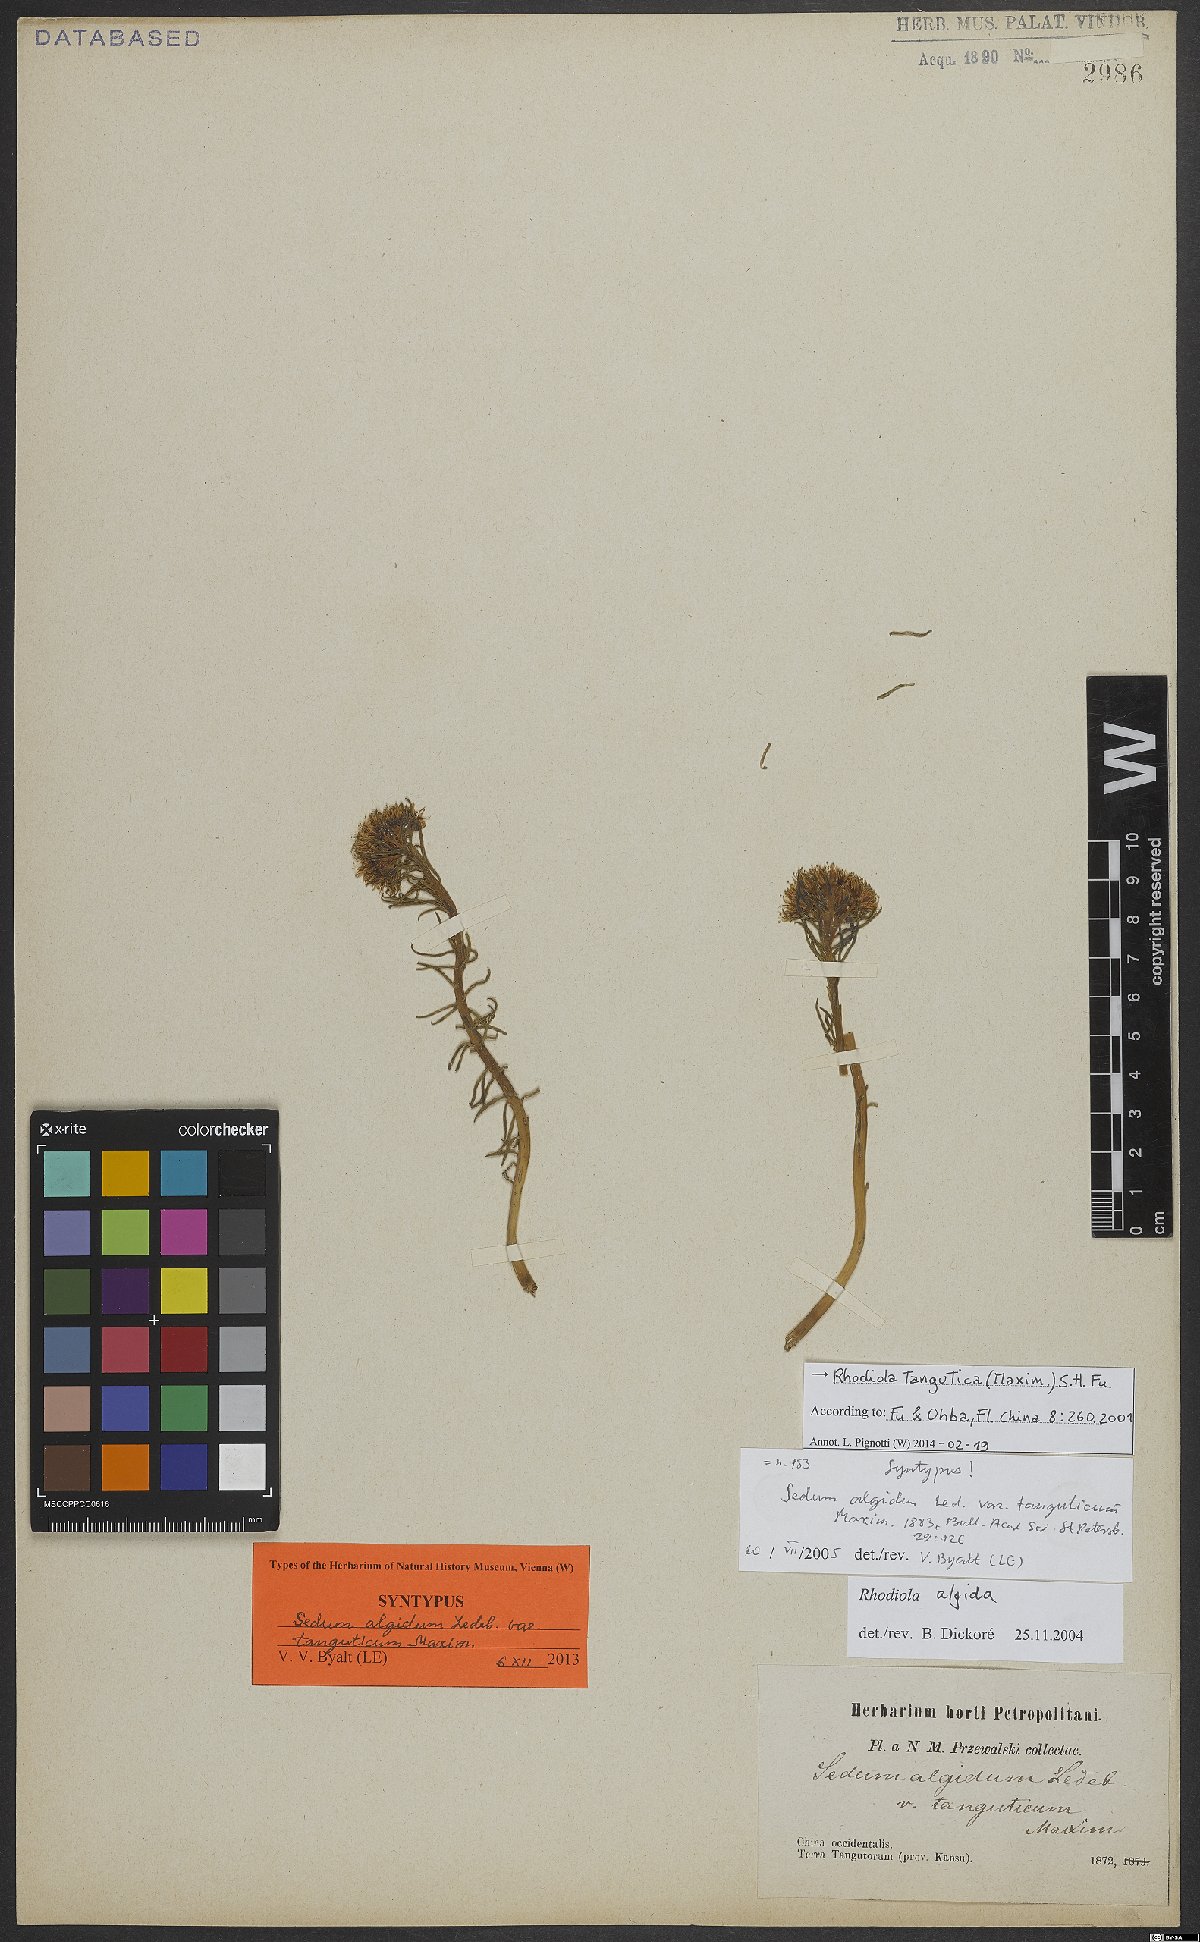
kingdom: Plantae
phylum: Tracheophyta
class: Magnoliopsida
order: Saxifragales
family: Crassulaceae
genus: Rhodiola
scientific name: Rhodiola tangutica
